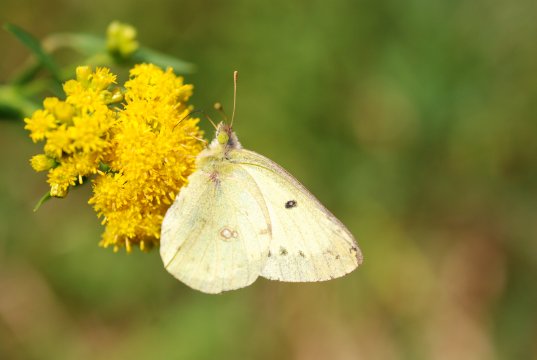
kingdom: Animalia
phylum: Arthropoda
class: Insecta
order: Lepidoptera
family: Pieridae
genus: Colias
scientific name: Colias philodice
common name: Clouded Sulphur
